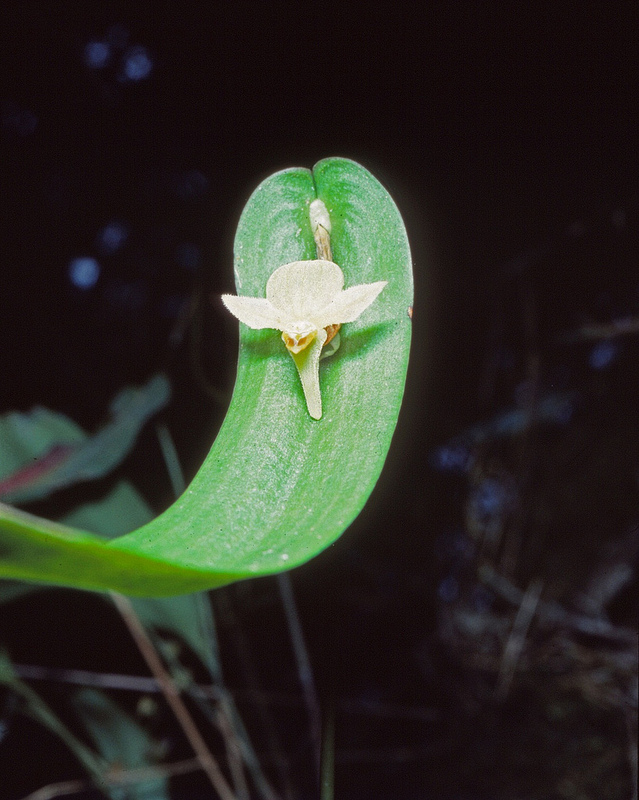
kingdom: Plantae
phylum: Tracheophyta
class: Liliopsida
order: Asparagales
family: Orchidaceae
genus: Pleurothallis
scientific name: Pleurothallis lilijae
